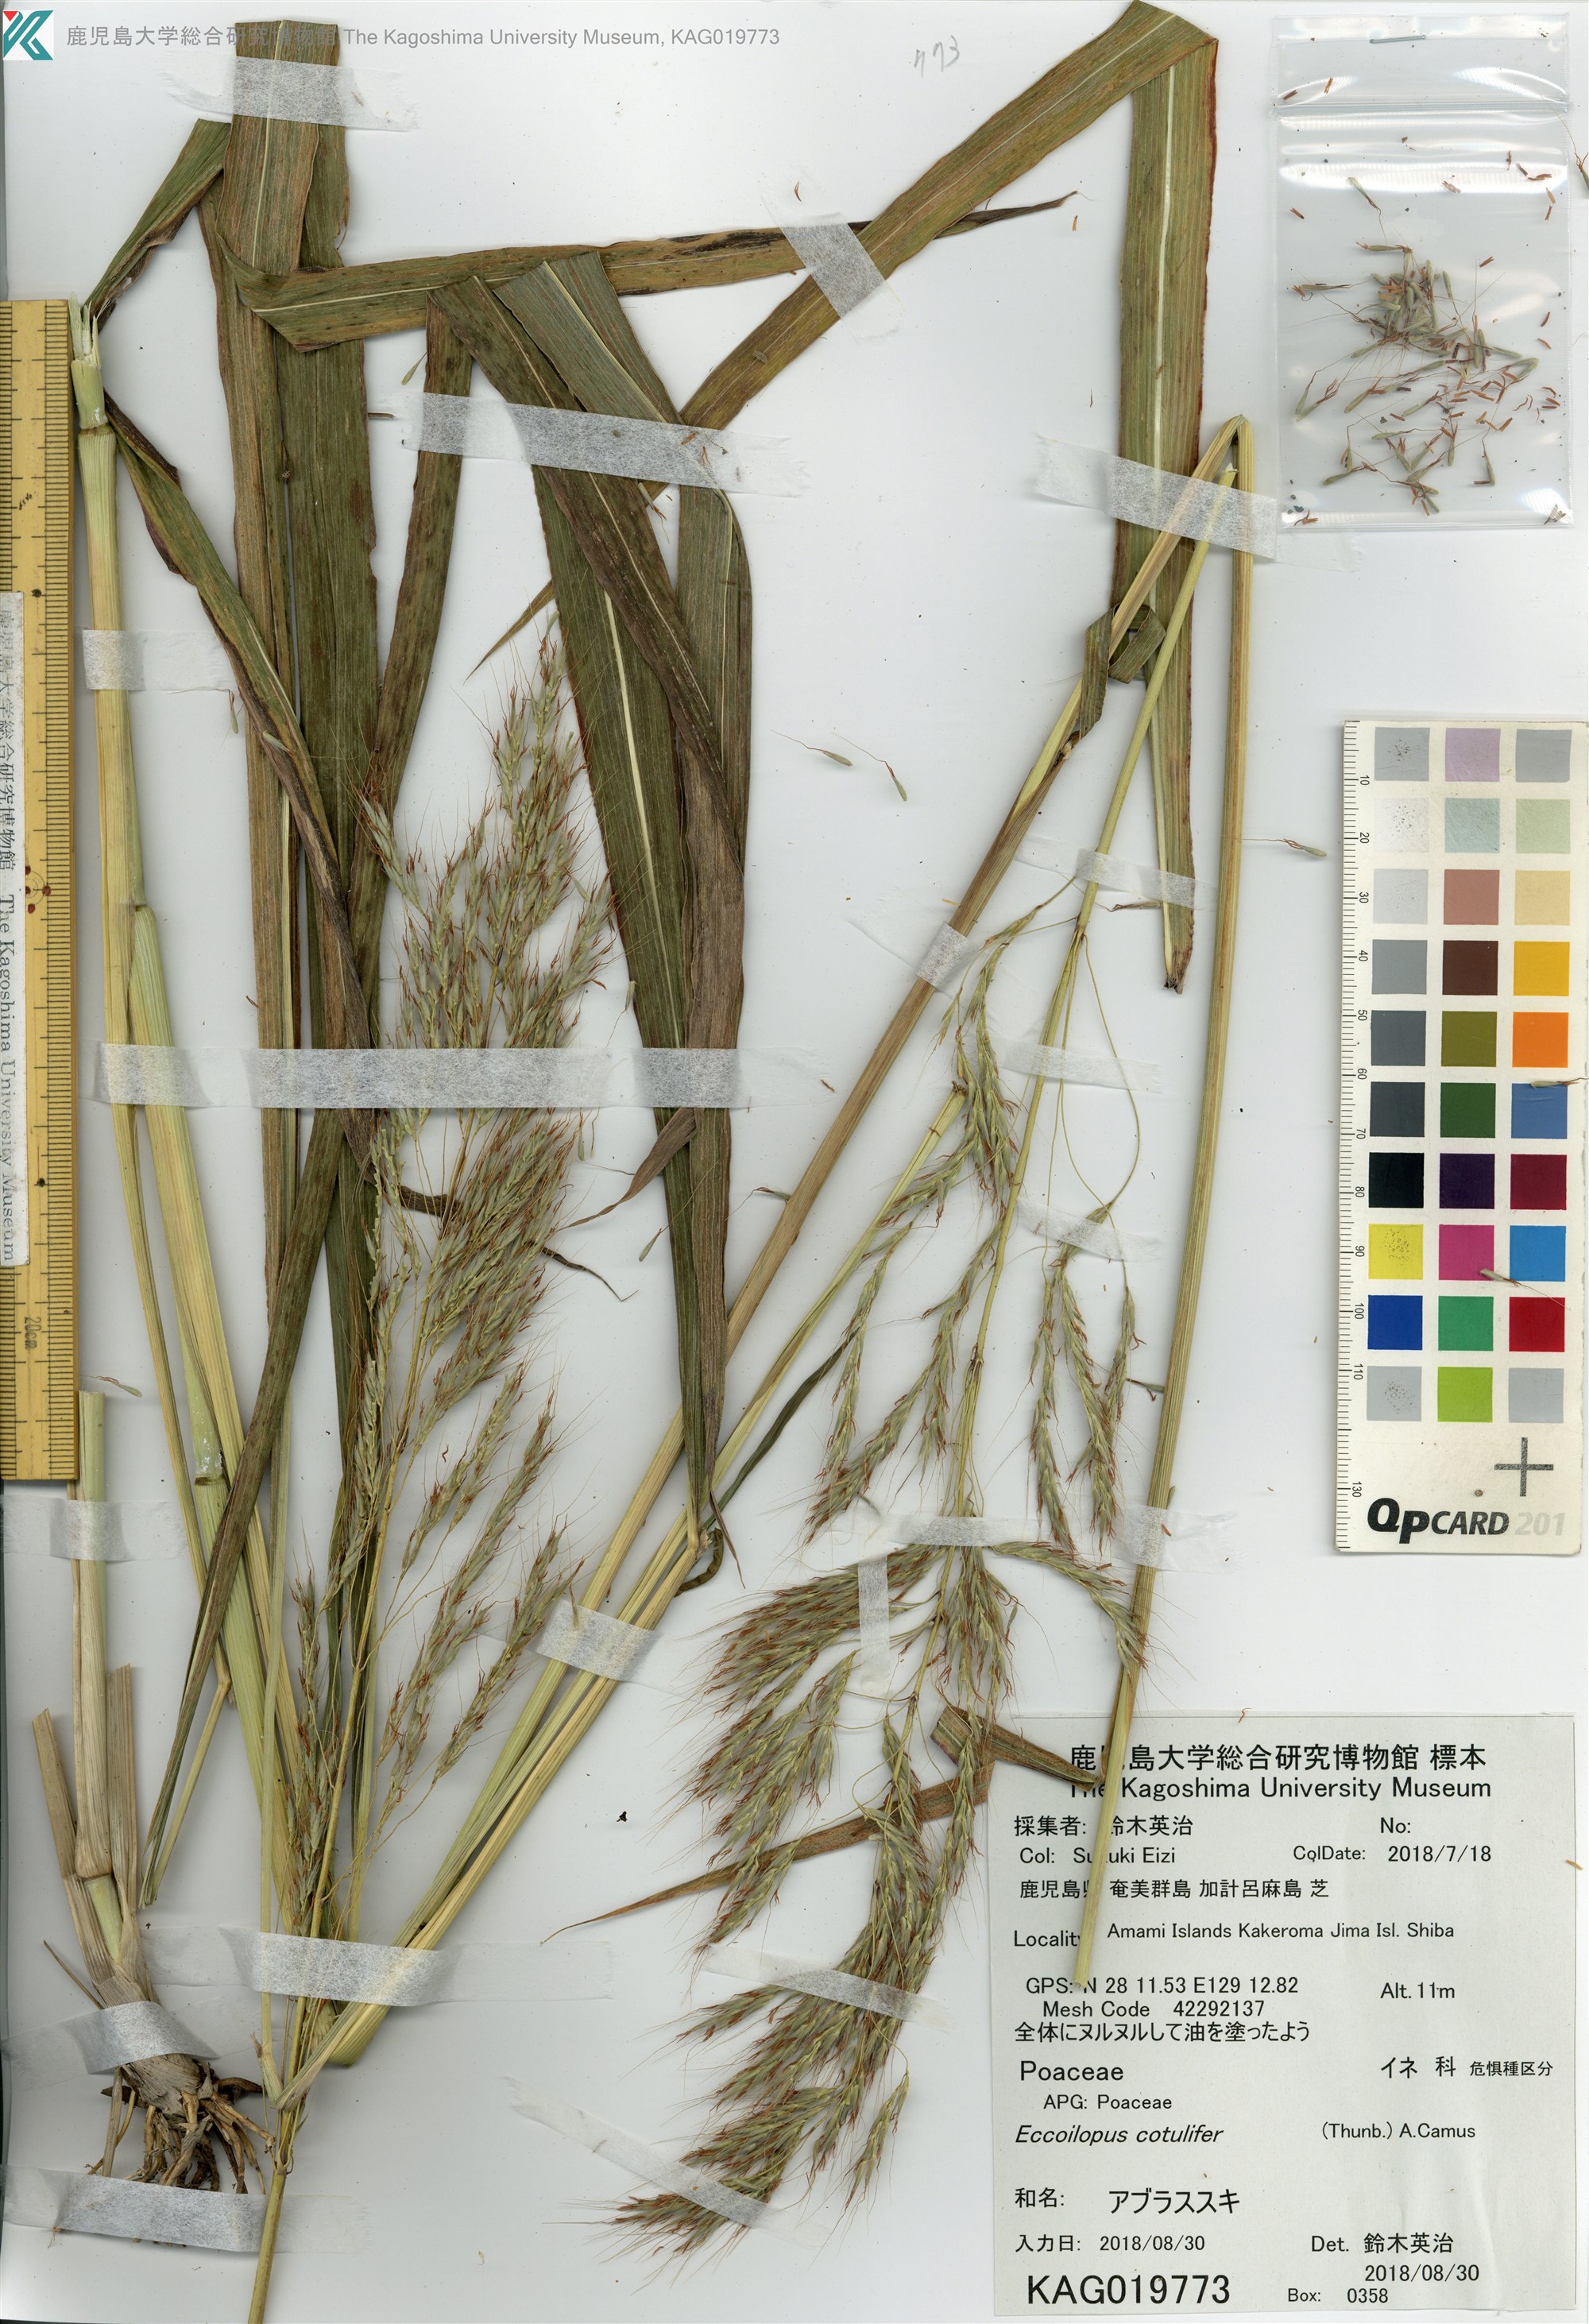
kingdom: Plantae
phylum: Tracheophyta
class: Liliopsida
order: Poales
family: Poaceae
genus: Spodiopogon
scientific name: Spodiopogon cotulifer
